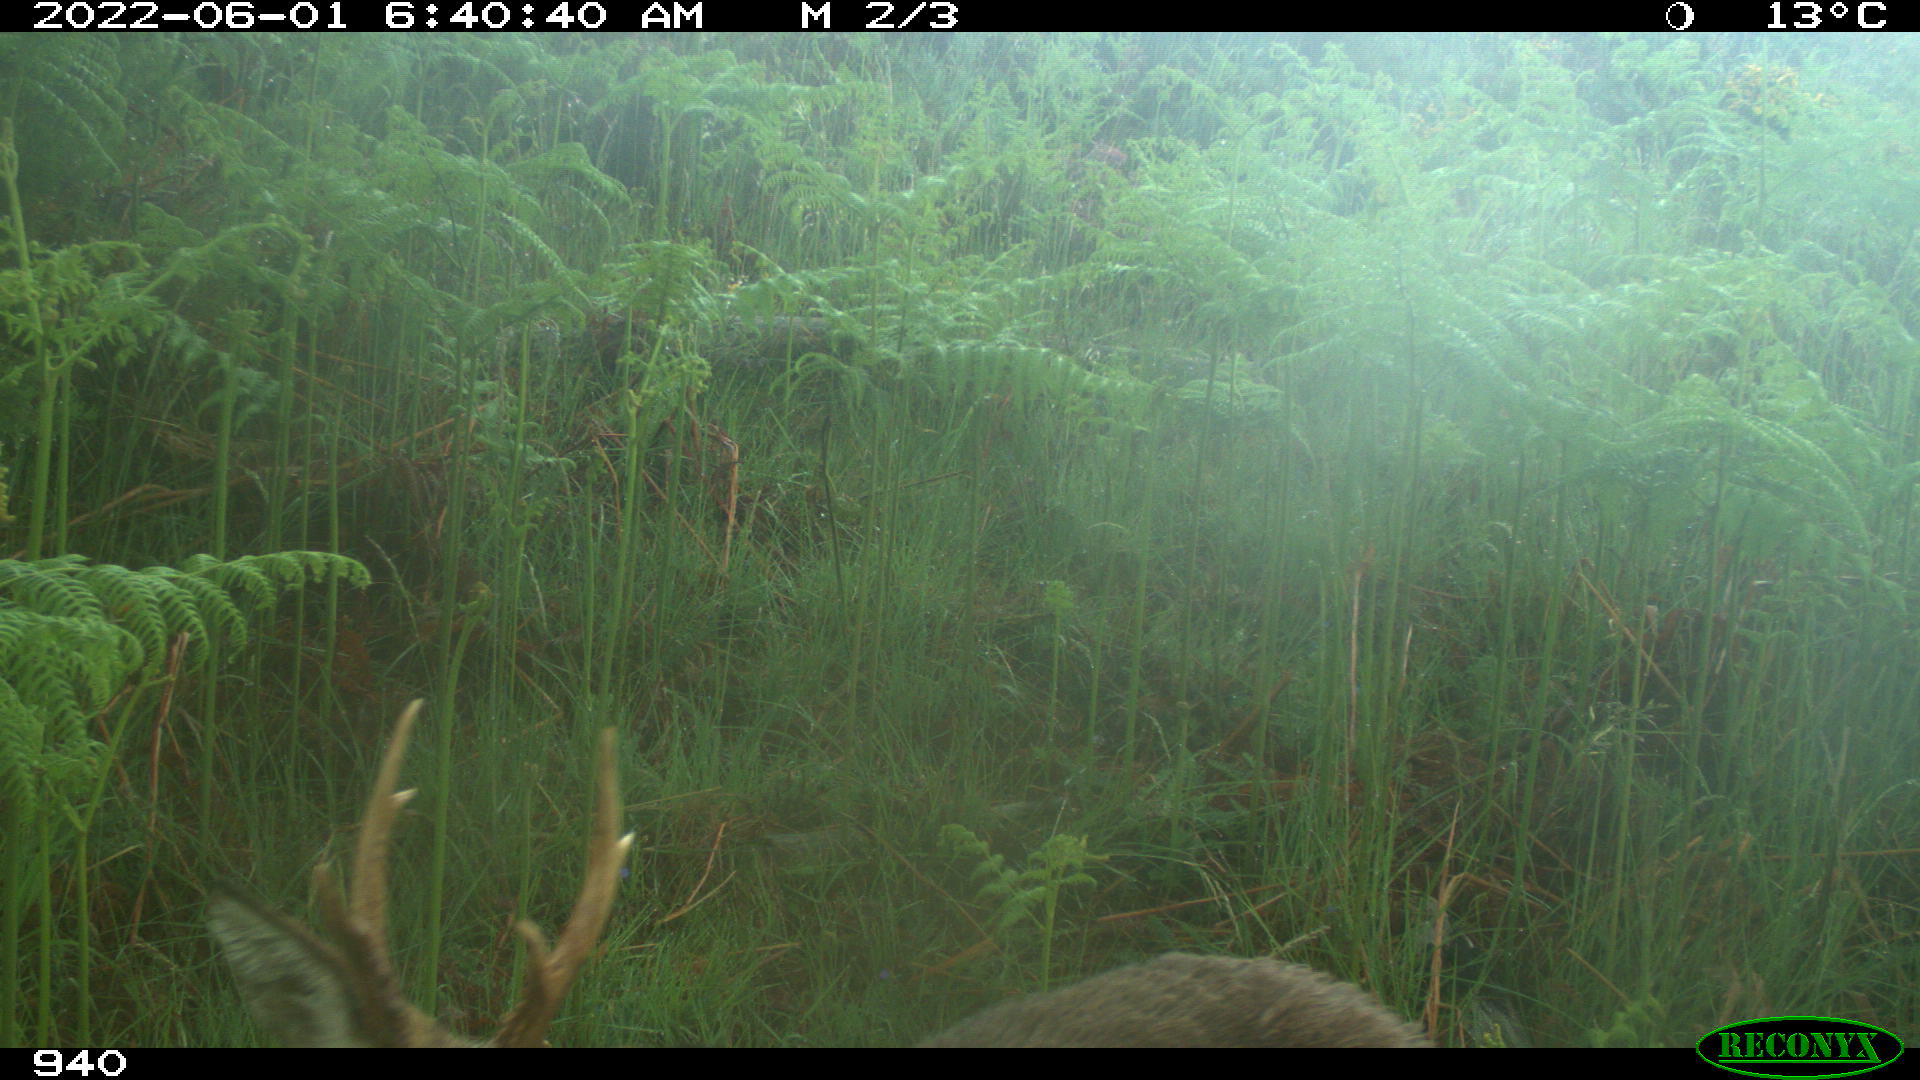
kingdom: Animalia
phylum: Chordata
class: Mammalia
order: Artiodactyla
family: Cervidae
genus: Capreolus
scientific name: Capreolus capreolus
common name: Western roe deer
